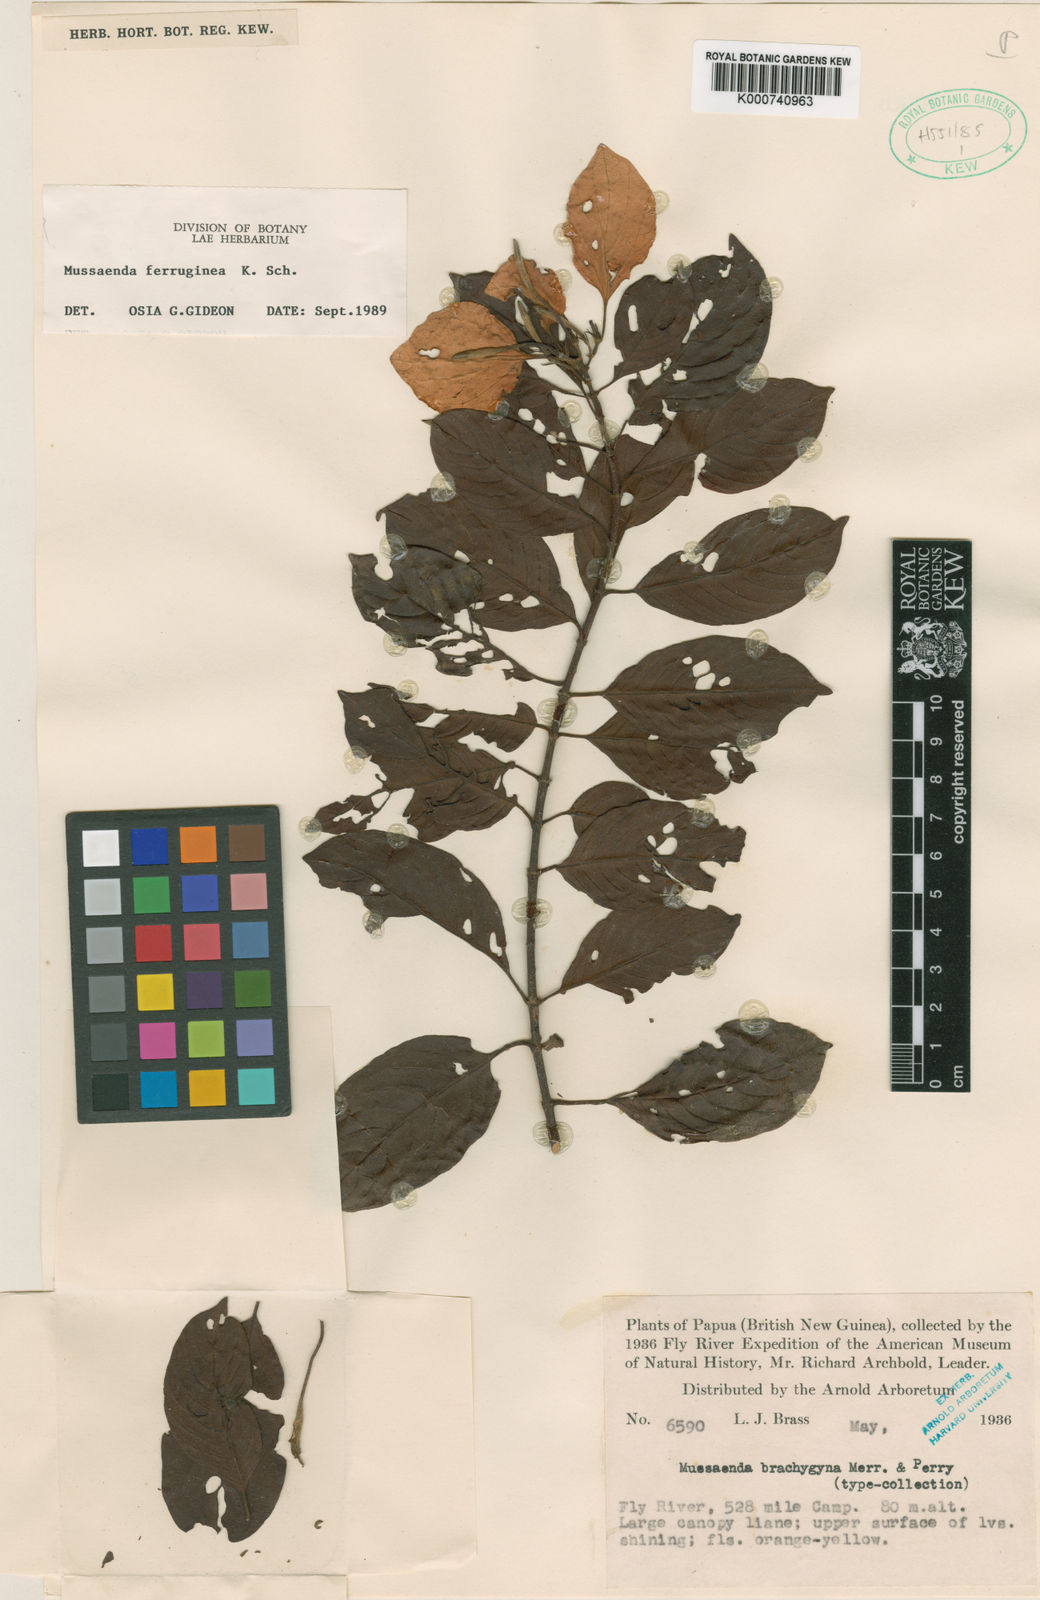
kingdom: Plantae
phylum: Tracheophyta
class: Magnoliopsida
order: Gentianales
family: Rubiaceae
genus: Mussaenda
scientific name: Mussaenda ferruginea
